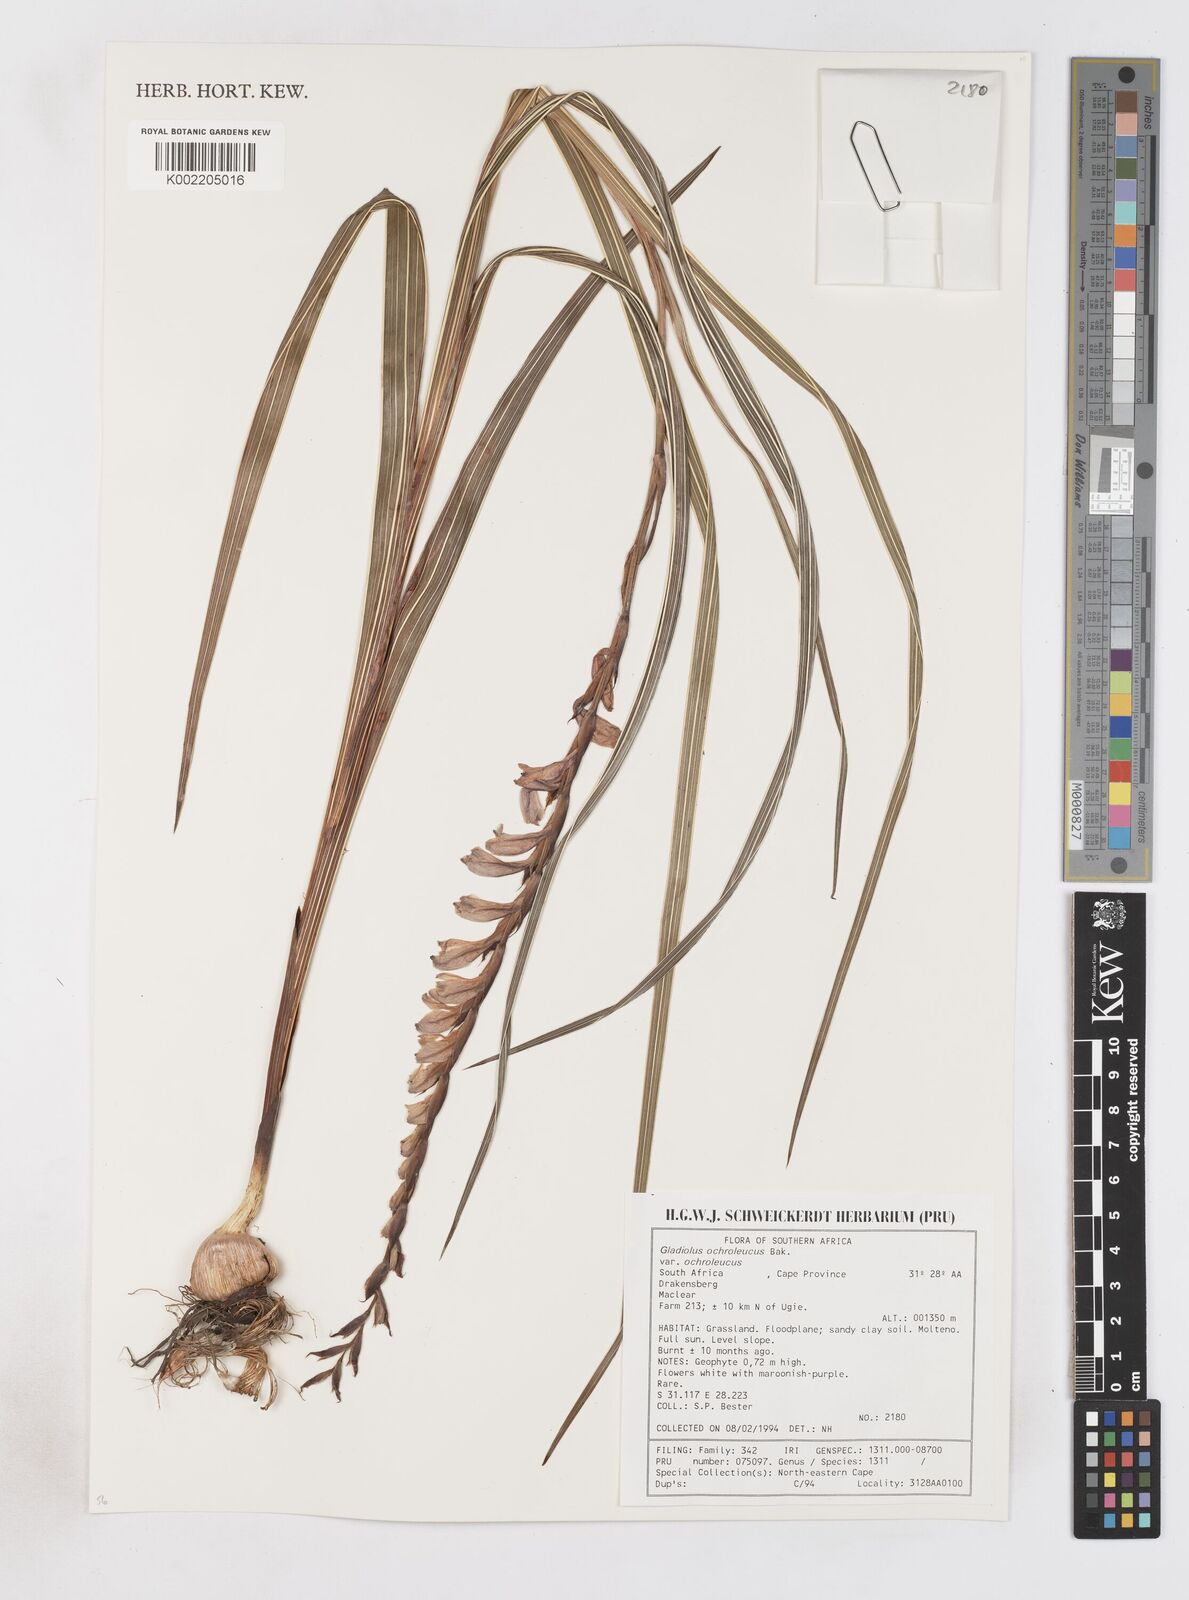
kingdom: Plantae
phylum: Tracheophyta
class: Liliopsida
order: Asparagales
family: Iridaceae
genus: Gladiolus
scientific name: Gladiolus ochroleucus
